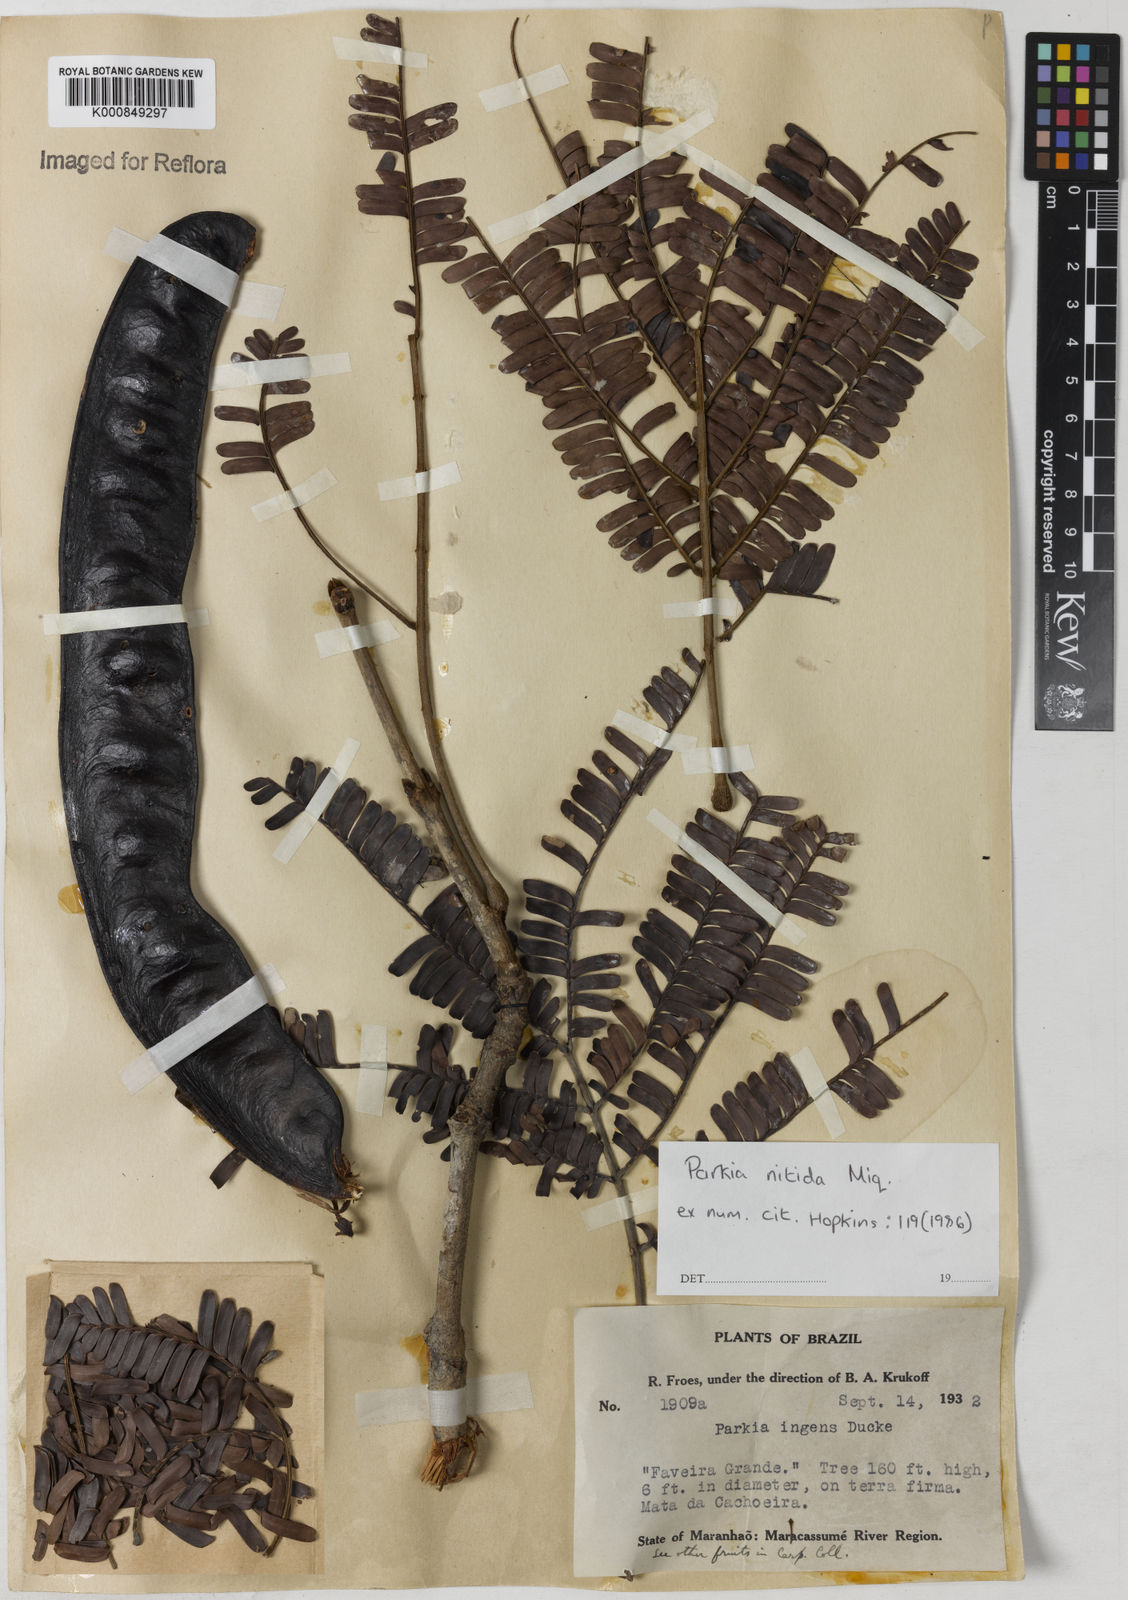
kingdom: Plantae
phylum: Tracheophyta
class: Magnoliopsida
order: Fabales
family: Fabaceae
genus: Parkia
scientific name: Parkia nitida
